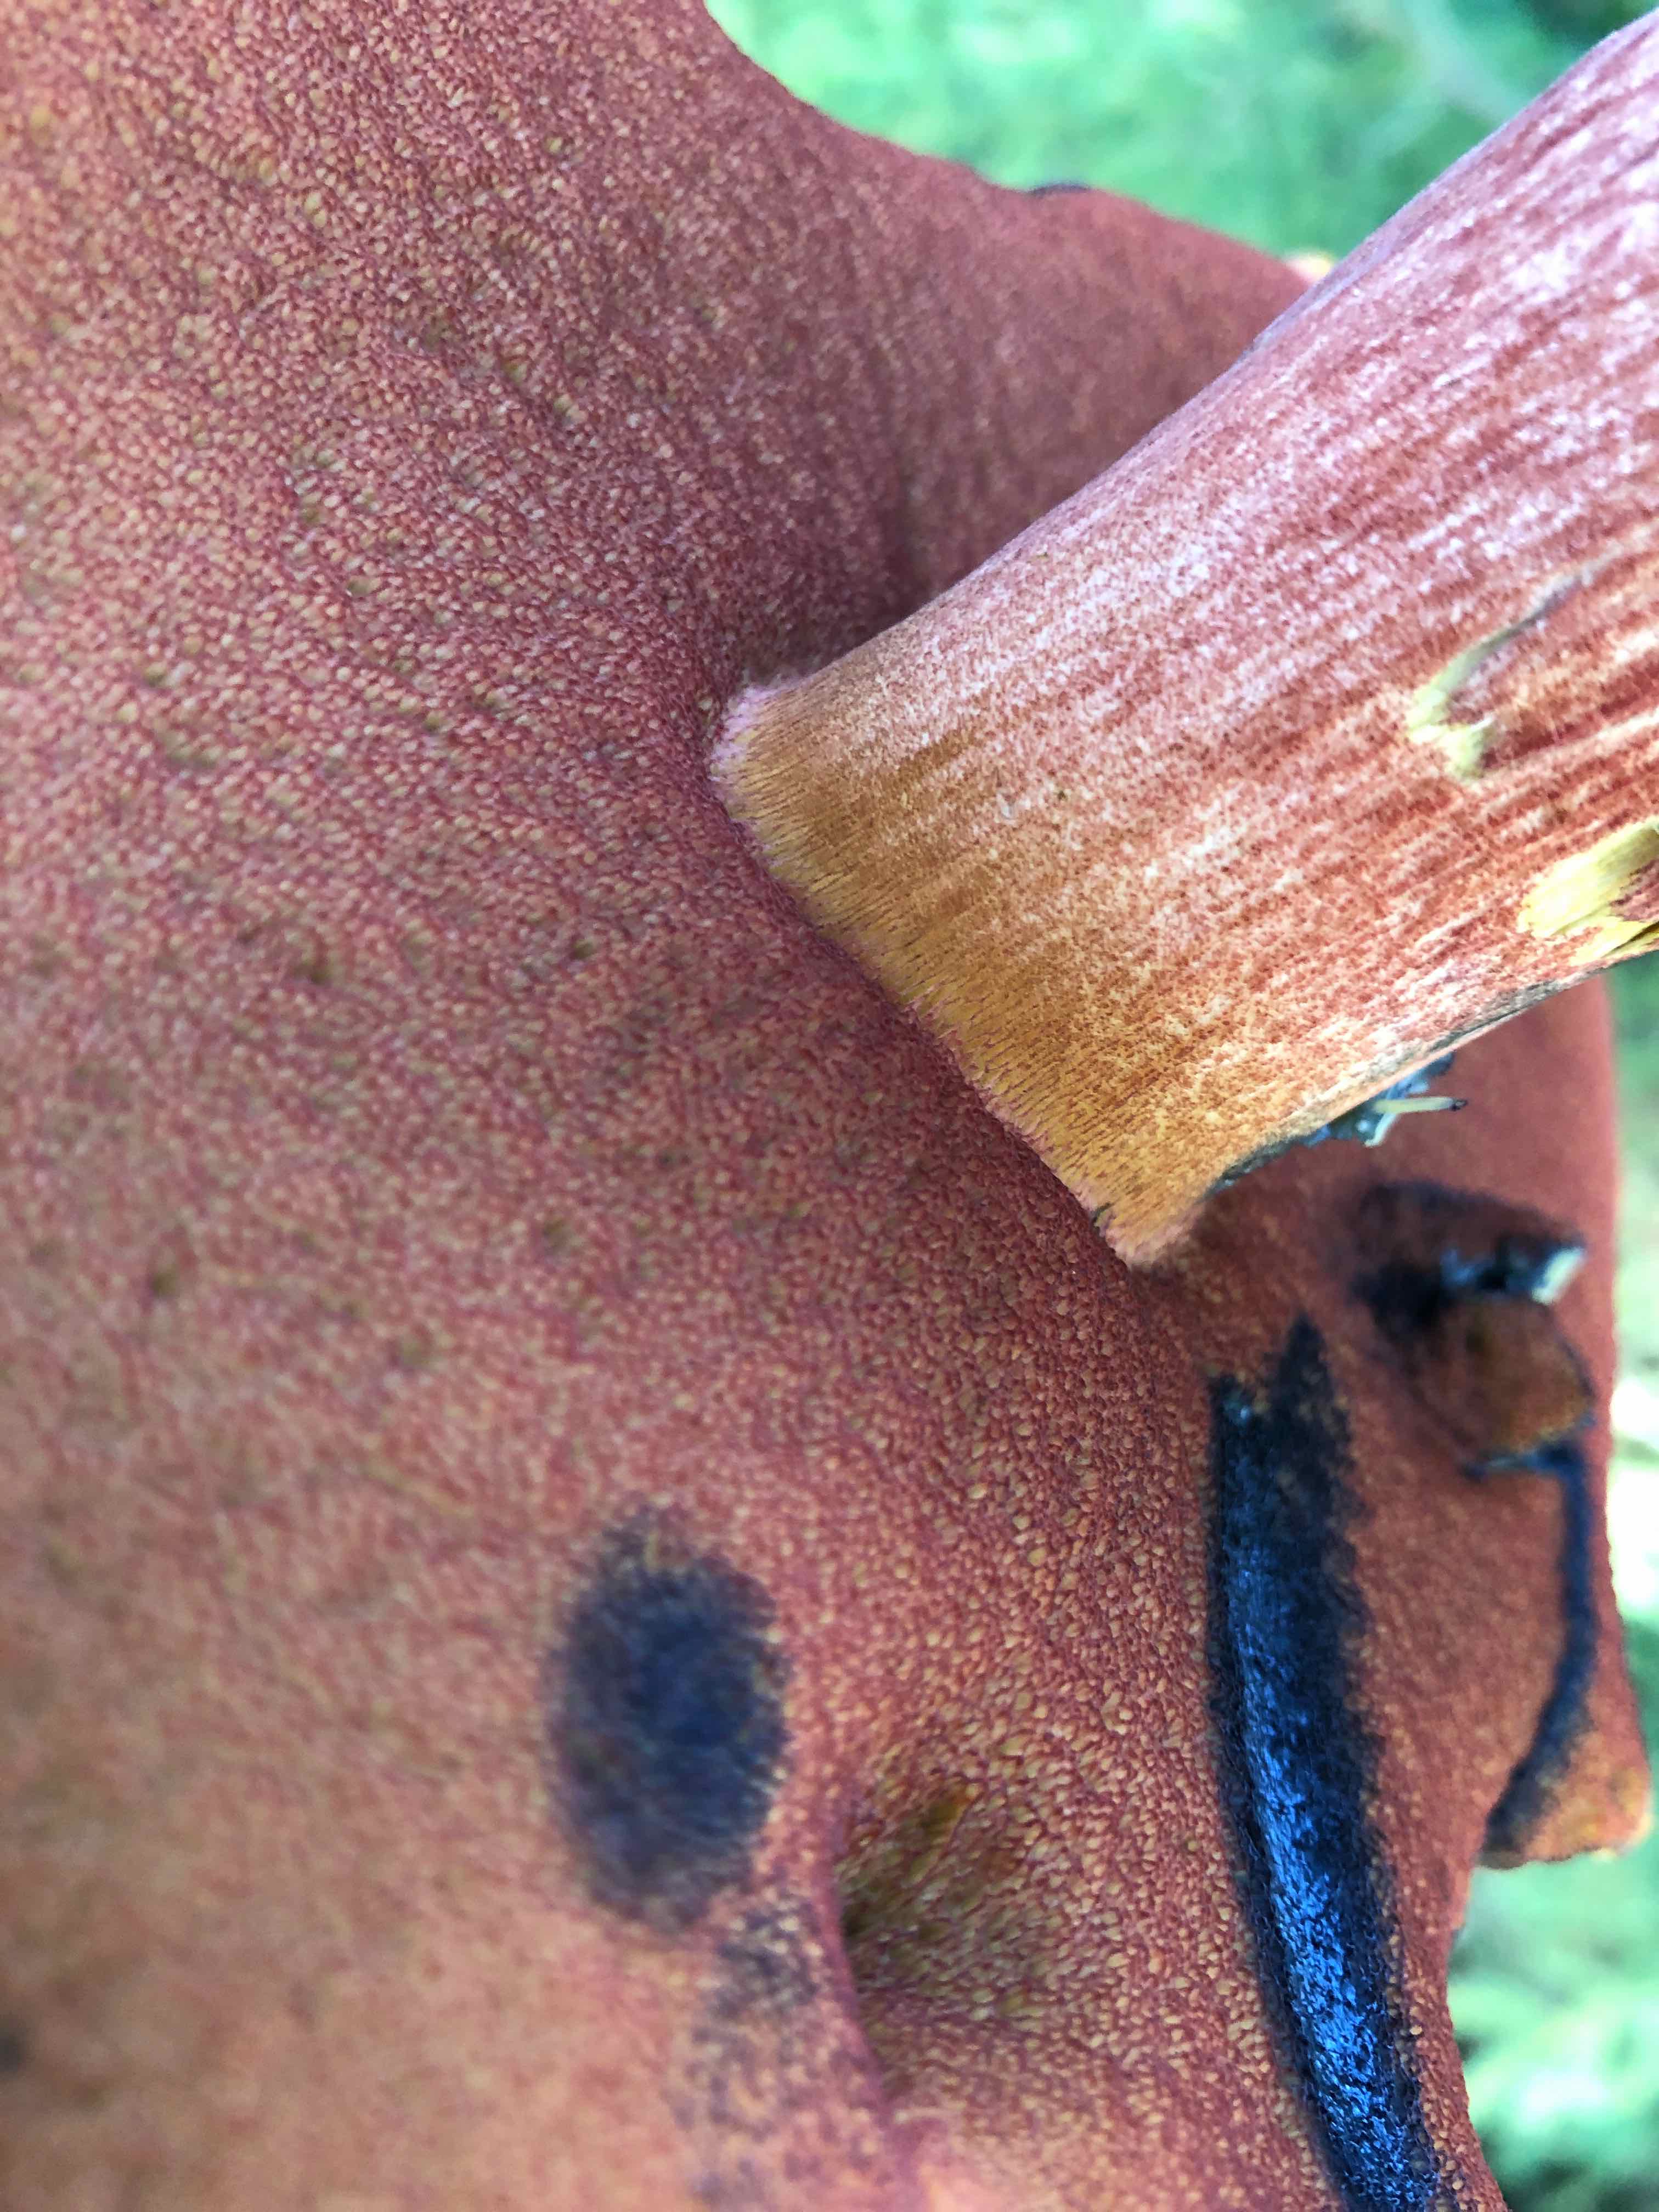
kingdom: Fungi
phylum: Basidiomycota
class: Agaricomycetes
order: Boletales
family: Boletaceae
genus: Neoboletus
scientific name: Neoboletus erythropus
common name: punktstokket indigorørhat
